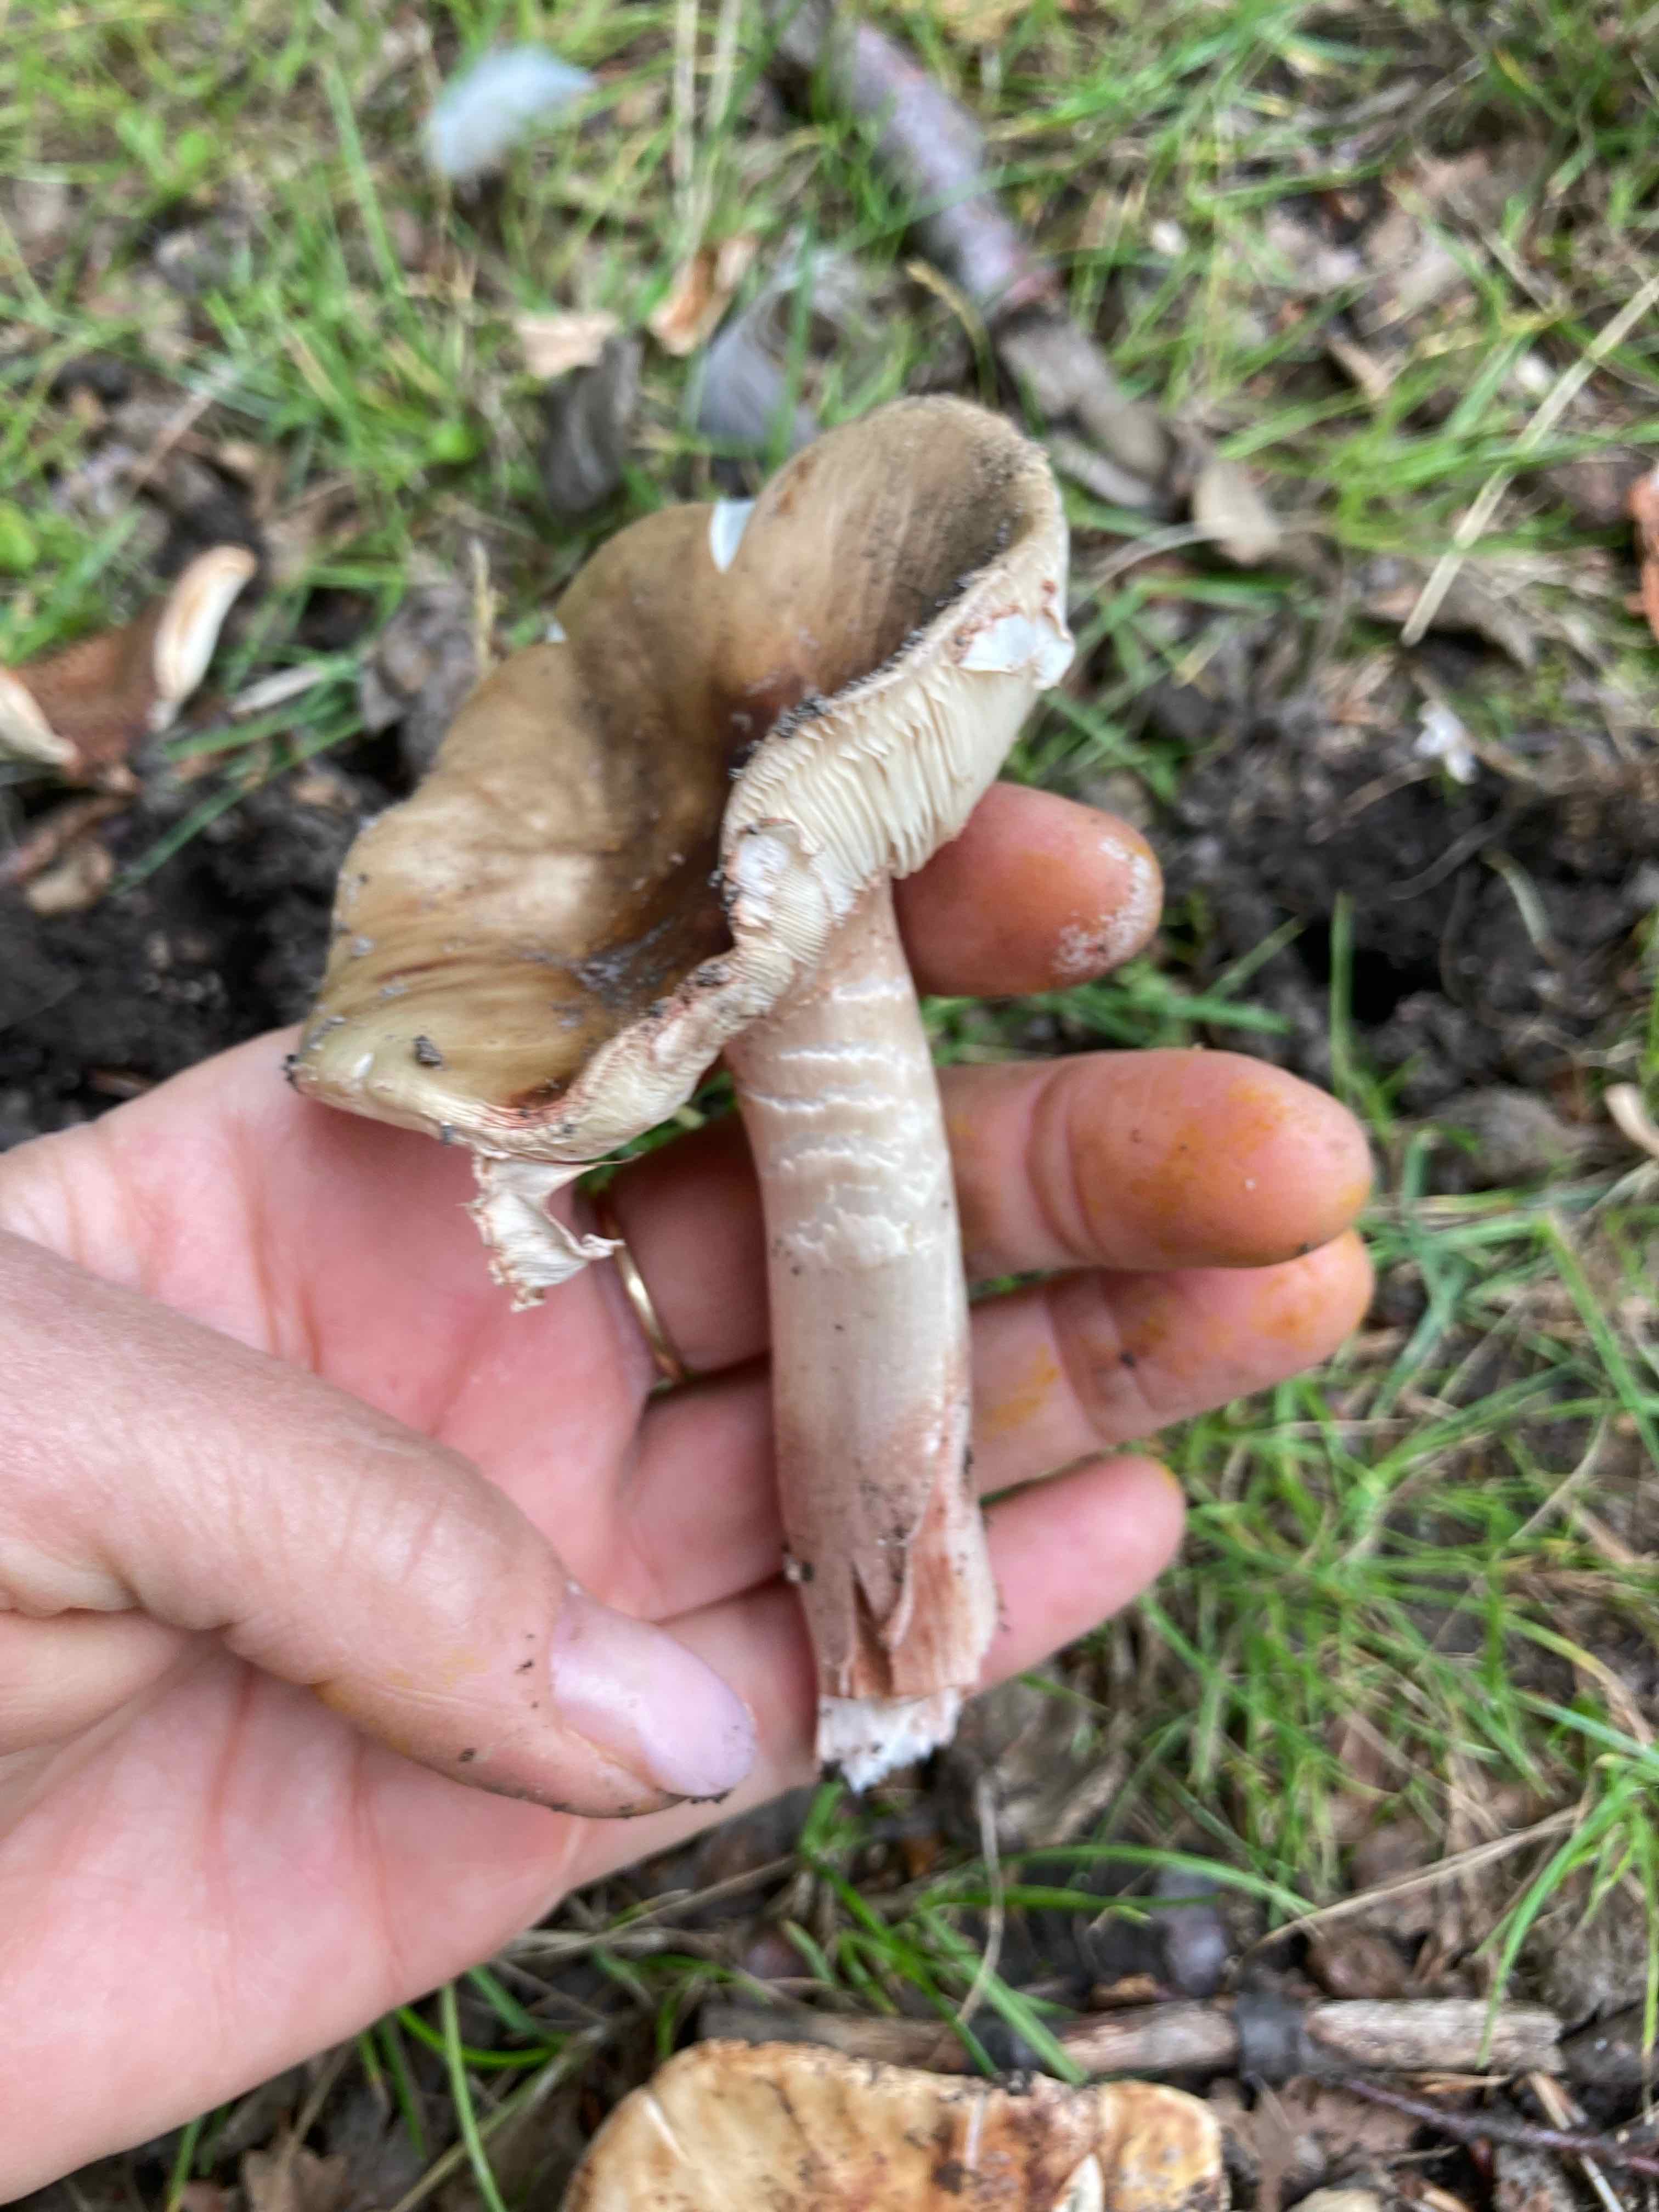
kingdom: Fungi
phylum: Basidiomycota
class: Agaricomycetes
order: Agaricales
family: Amanitaceae
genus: Amanita
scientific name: Amanita rubescens
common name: rødmende fluesvamp
